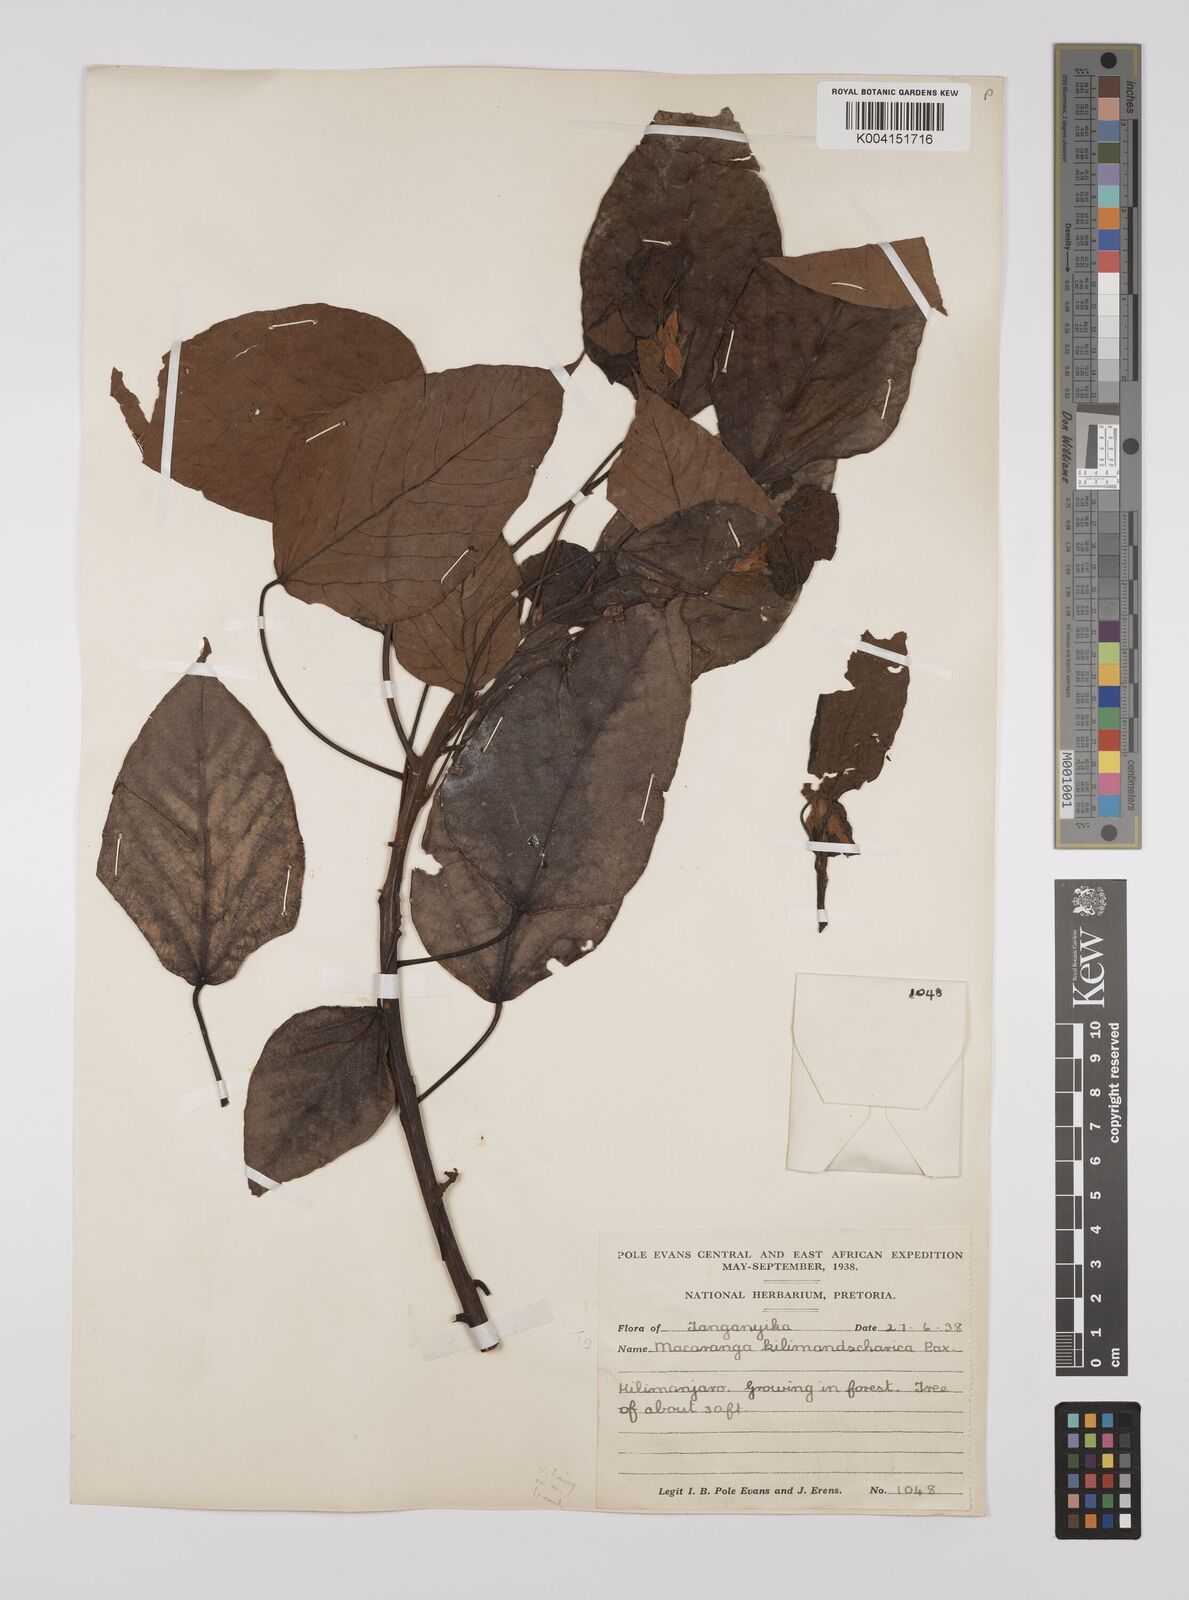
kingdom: Plantae
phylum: Tracheophyta
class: Magnoliopsida
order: Malpighiales
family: Euphorbiaceae
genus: Macaranga
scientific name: Macaranga kilimandscharica
